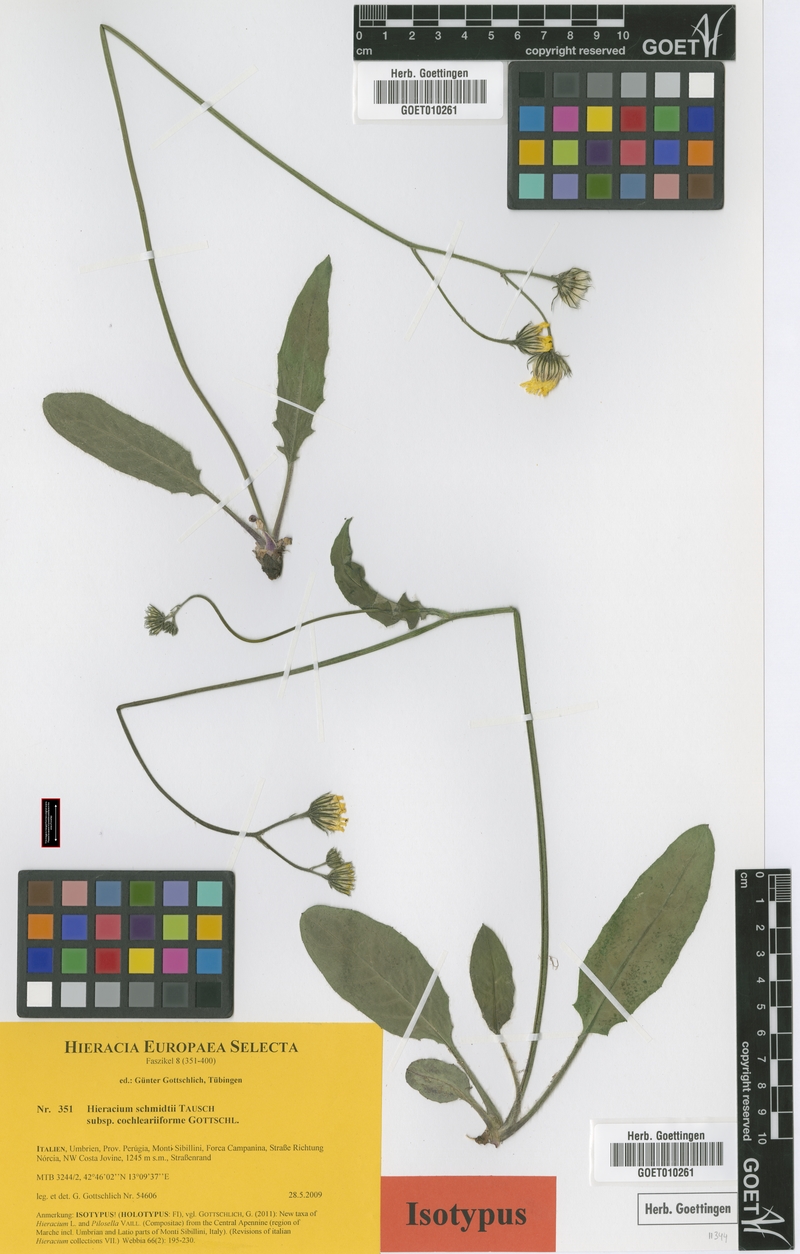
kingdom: Plantae
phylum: Tracheophyta
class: Magnoliopsida
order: Asterales
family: Asteraceae
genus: Hieracium
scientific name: Hieracium schmidtii
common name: Schmidt's hawkweed
